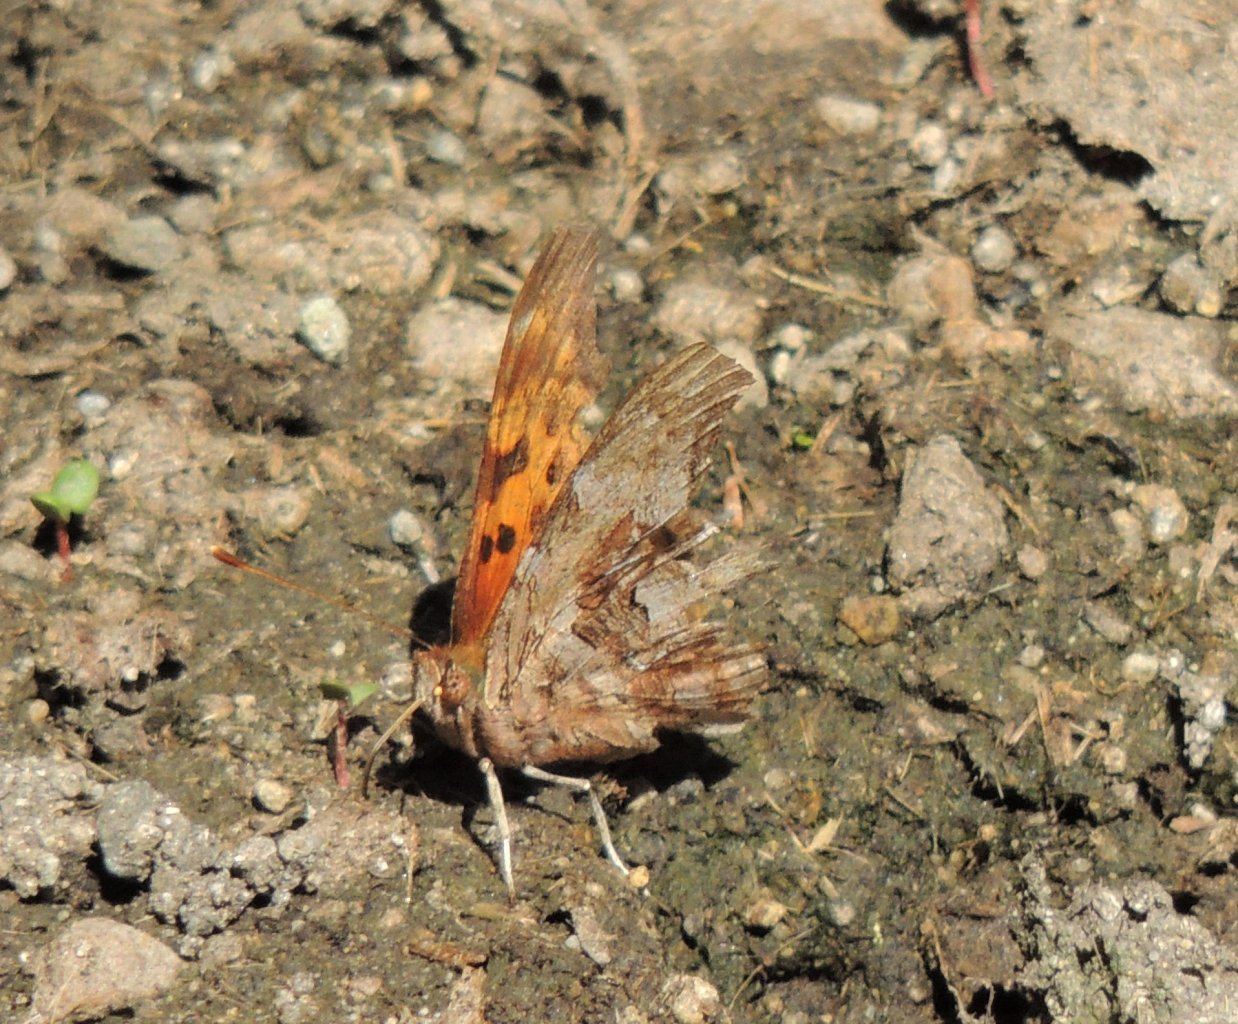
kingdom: Animalia
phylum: Arthropoda
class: Insecta
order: Lepidoptera
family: Nymphalidae
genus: Polygonia
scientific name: Polygonia satyrus
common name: Satyr Comma
